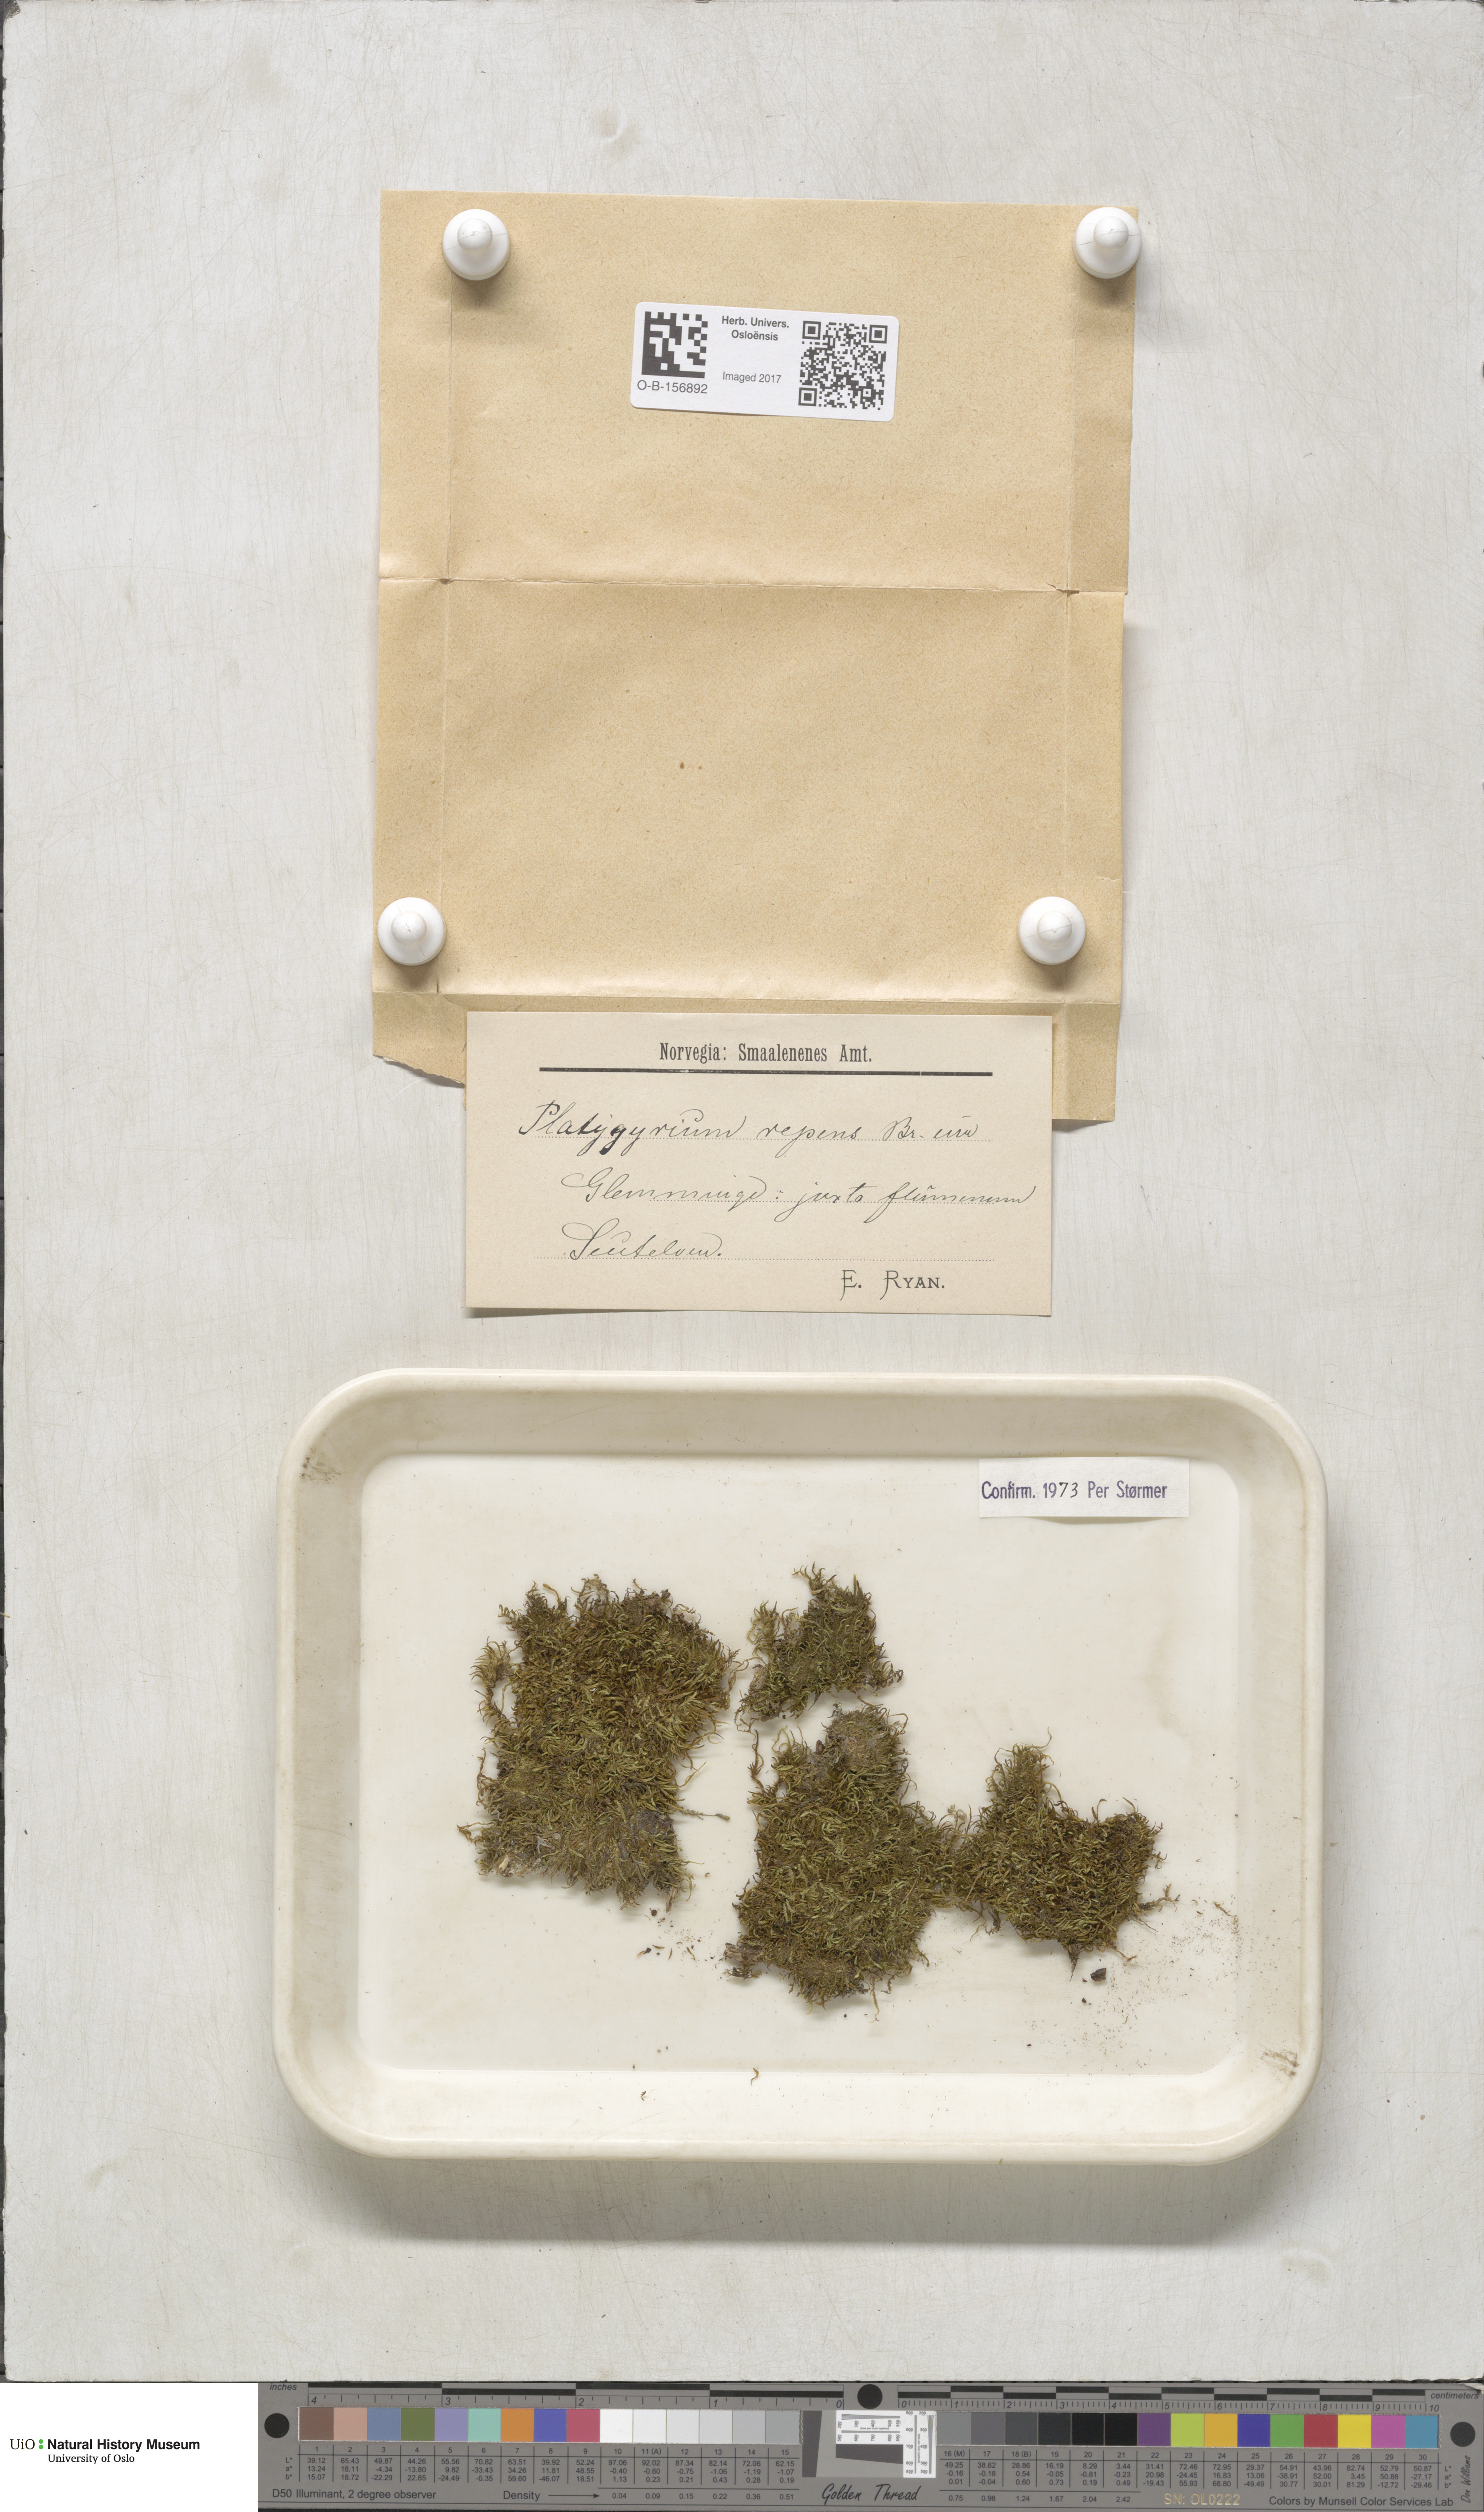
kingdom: Plantae
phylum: Bryophyta
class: Bryopsida
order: Hypnales
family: Pylaisiadelphaceae
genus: Platygyrium
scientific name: Platygyrium repens
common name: Flat-brocade moss
